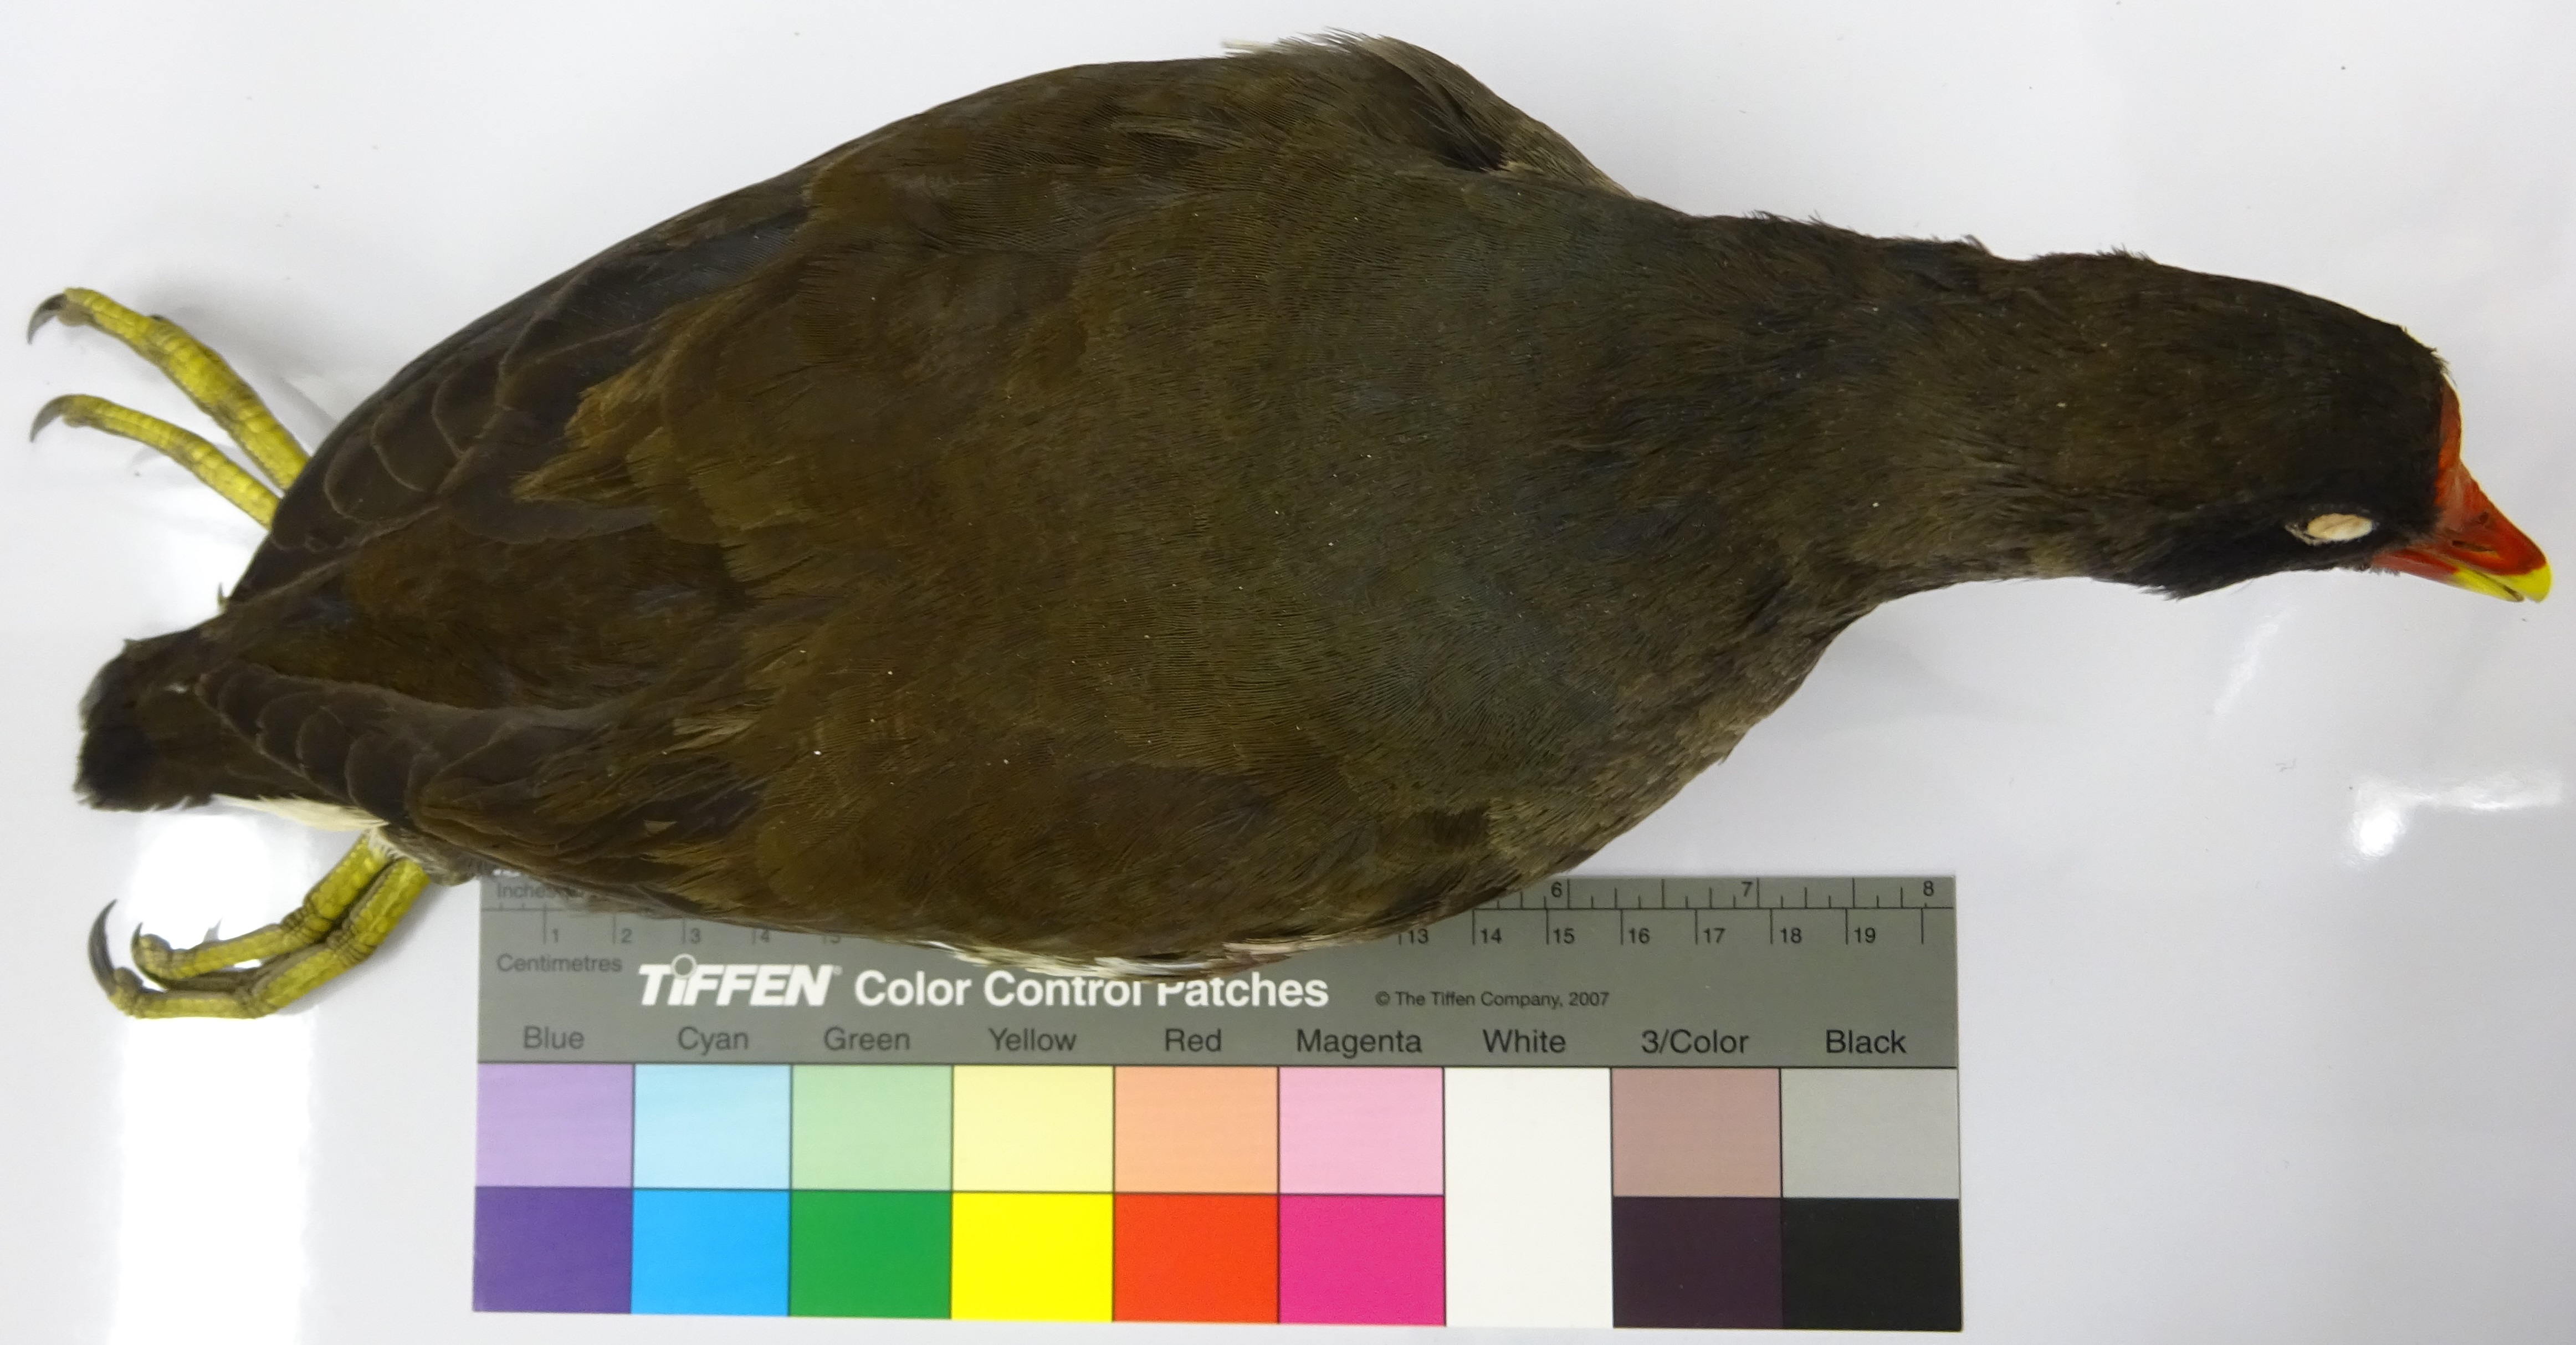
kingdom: Animalia
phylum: Chordata
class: Aves
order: Gruiformes
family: Rallidae
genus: Gallinula
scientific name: Gallinula chloropus
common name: Common moorhen
